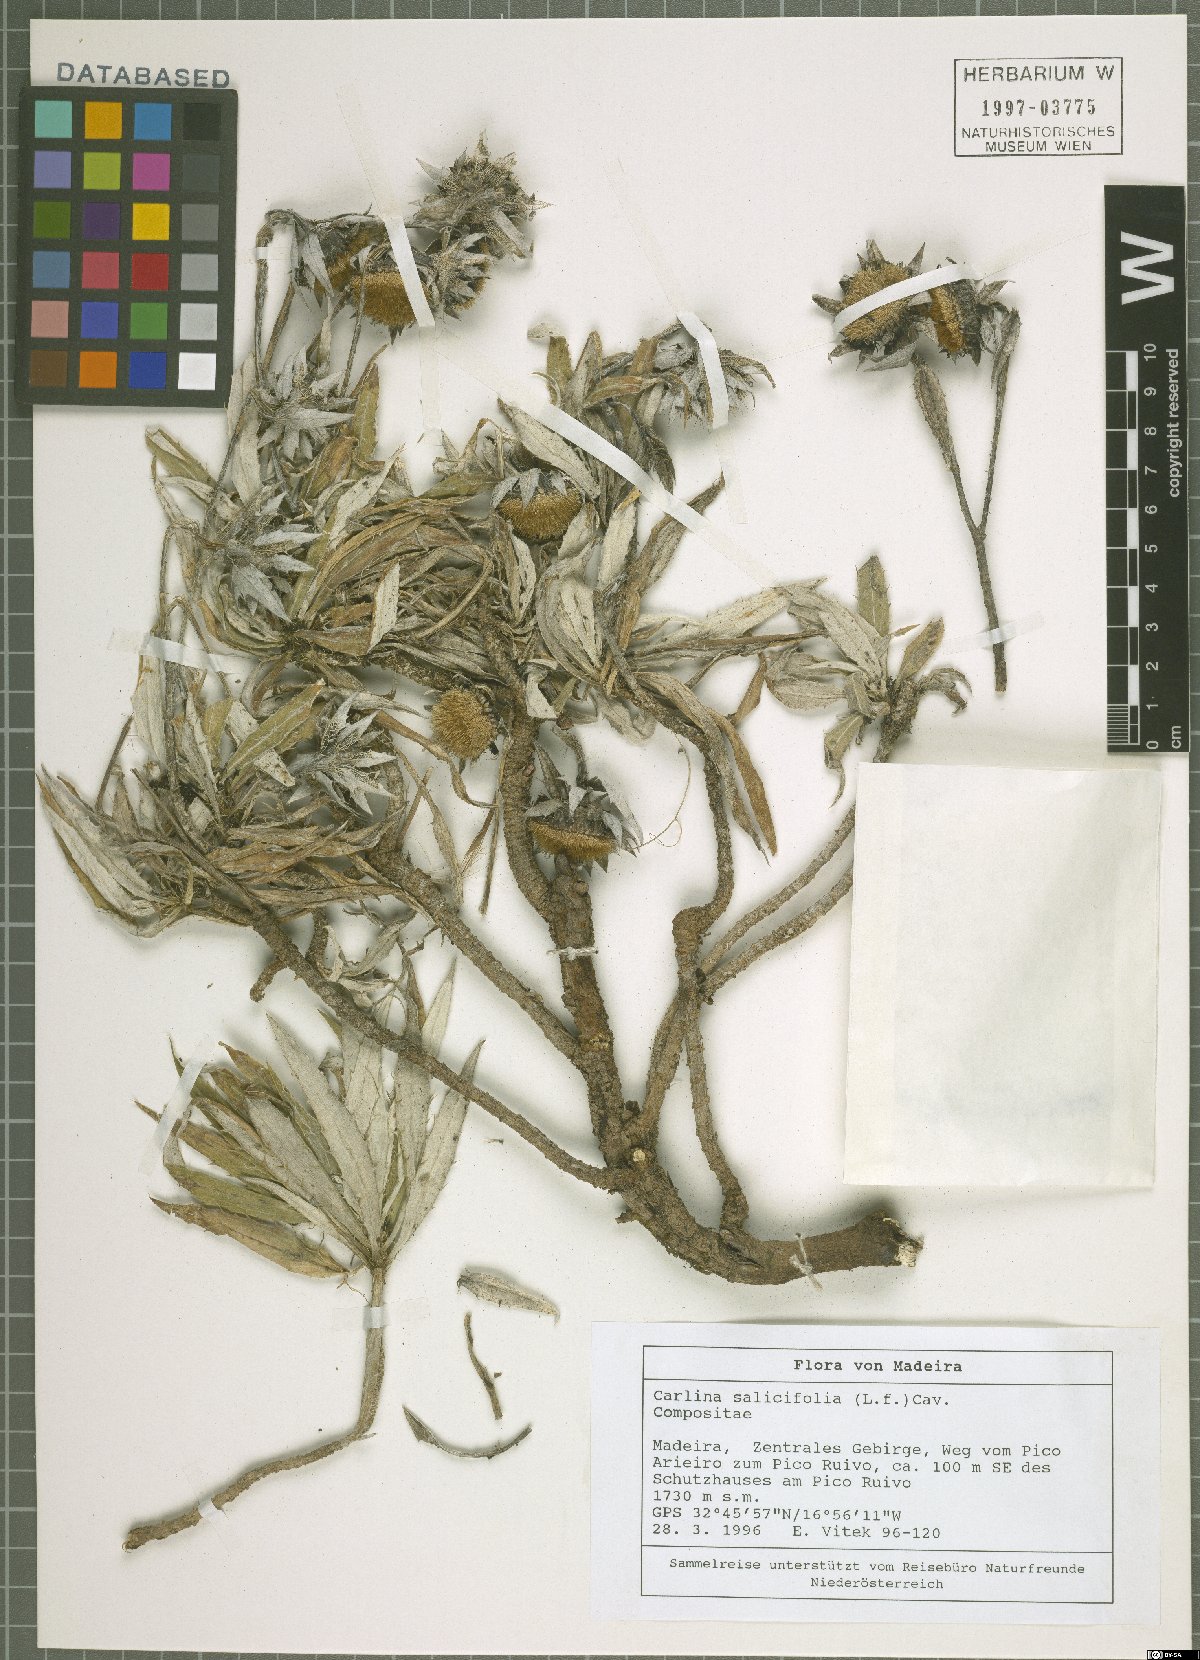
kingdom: Plantae
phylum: Tracheophyta
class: Magnoliopsida
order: Asterales
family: Asteraceae
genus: Carlina
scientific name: Carlina salicifolia
